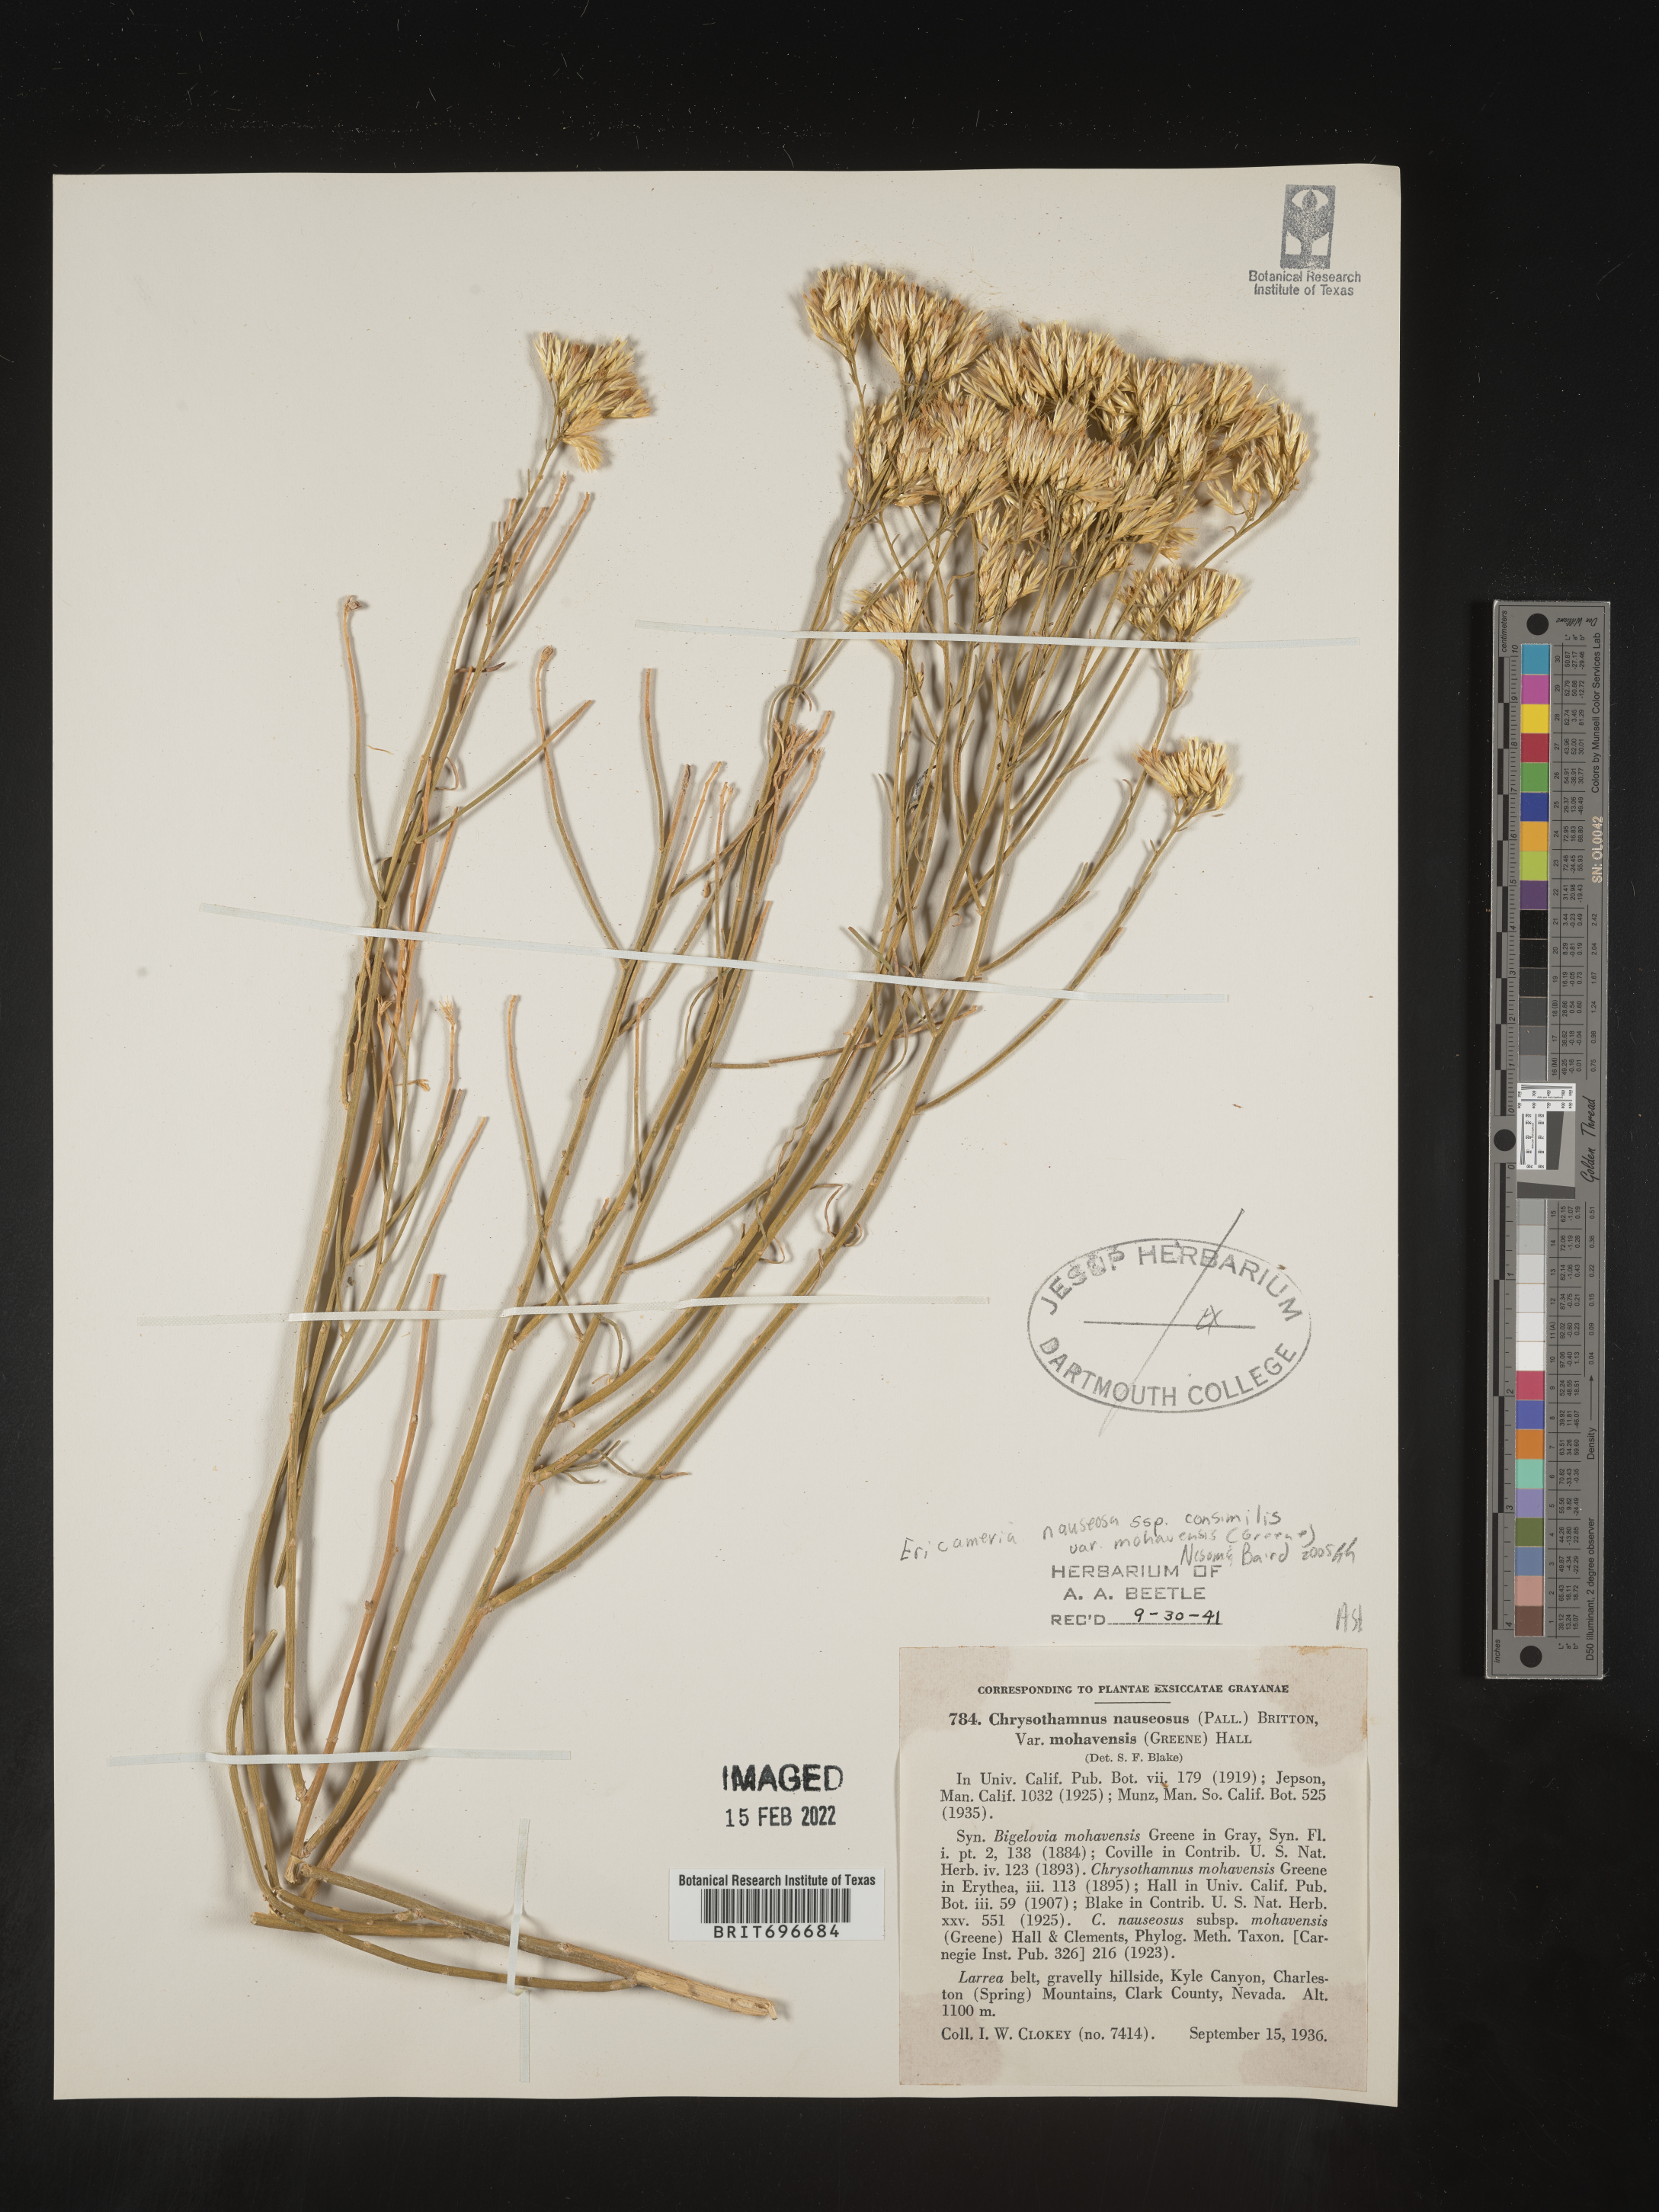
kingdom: Plantae
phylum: Tracheophyta
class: Magnoliopsida
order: Asterales
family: Asteraceae
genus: Ericameria
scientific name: Ericameria nauseosa
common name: Rubber rabbitbrush
